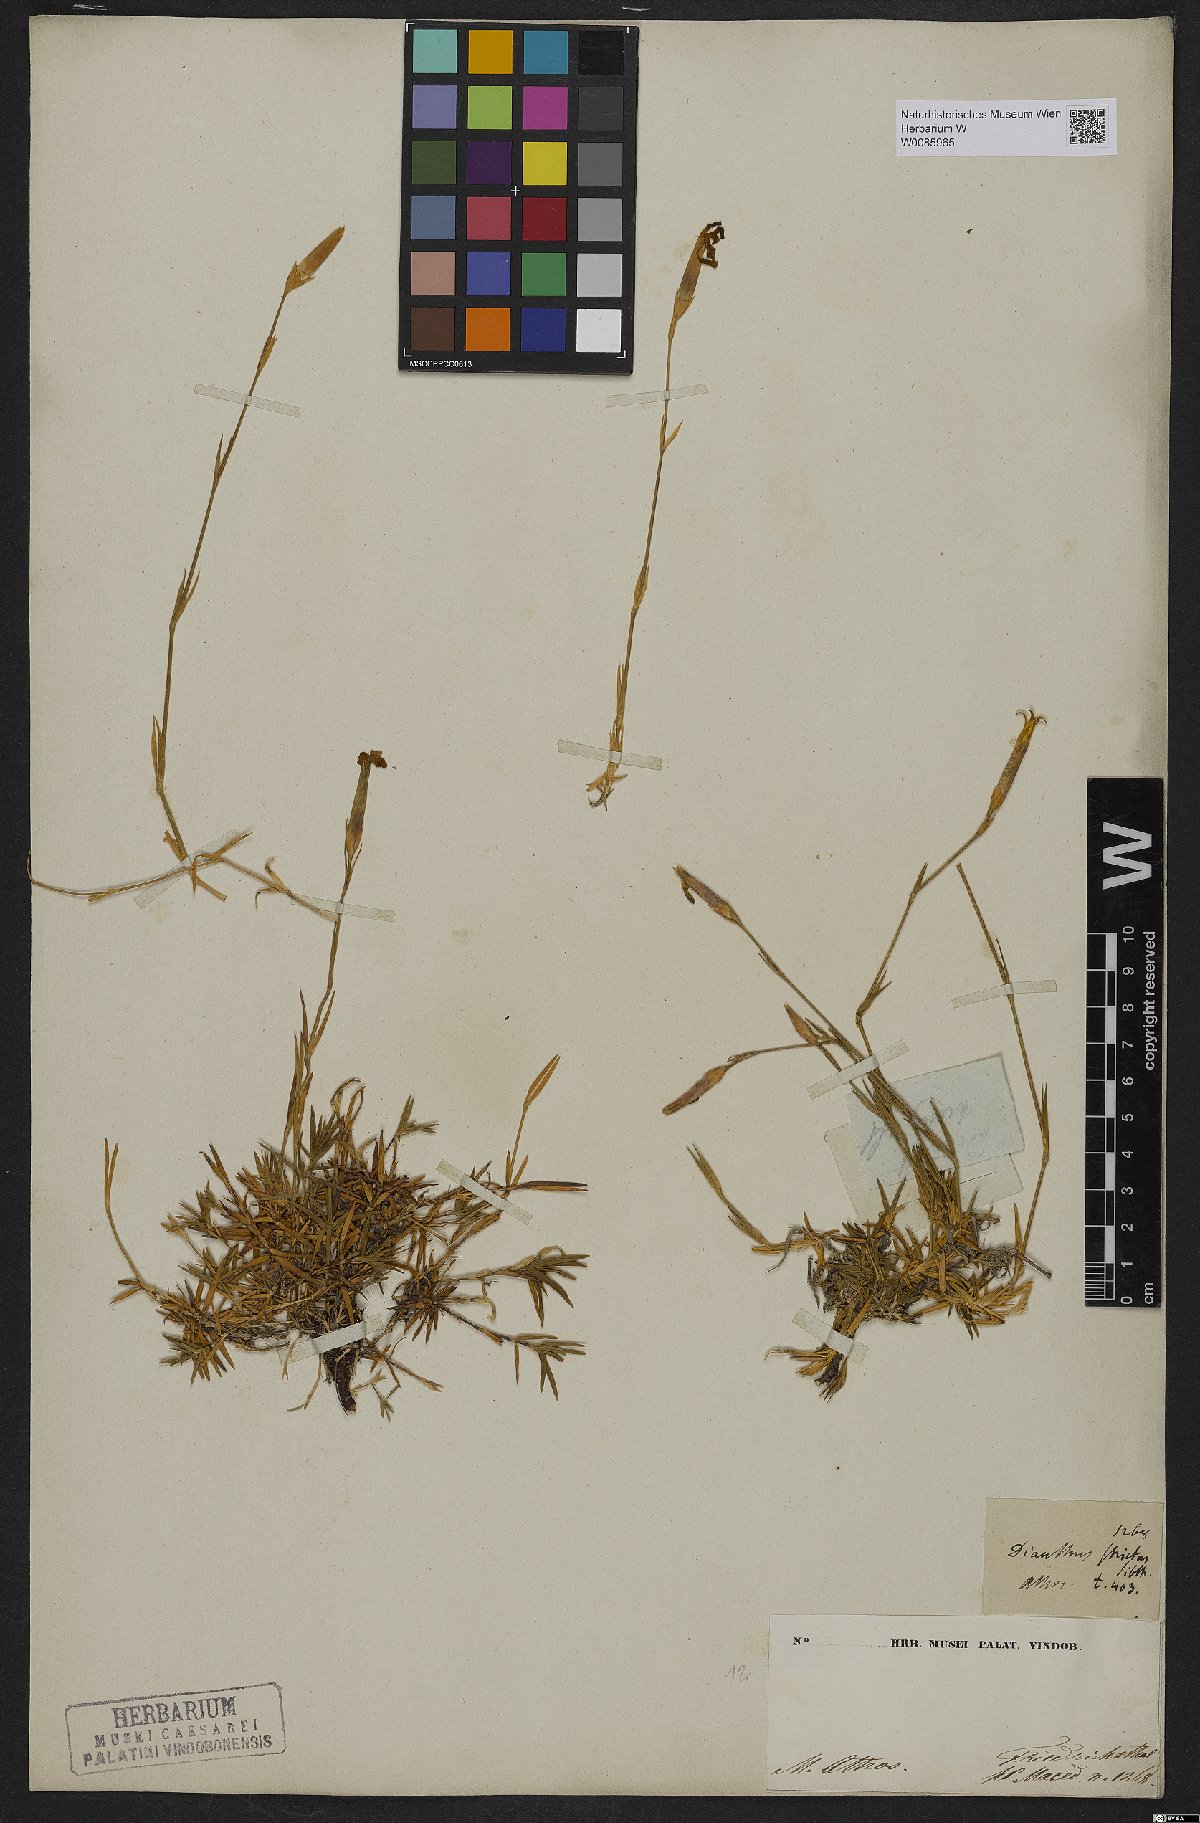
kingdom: Plantae
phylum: Tracheophyta
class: Magnoliopsida
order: Caryophyllales
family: Caryophyllaceae
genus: Dianthus
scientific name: Dianthus petraeus
